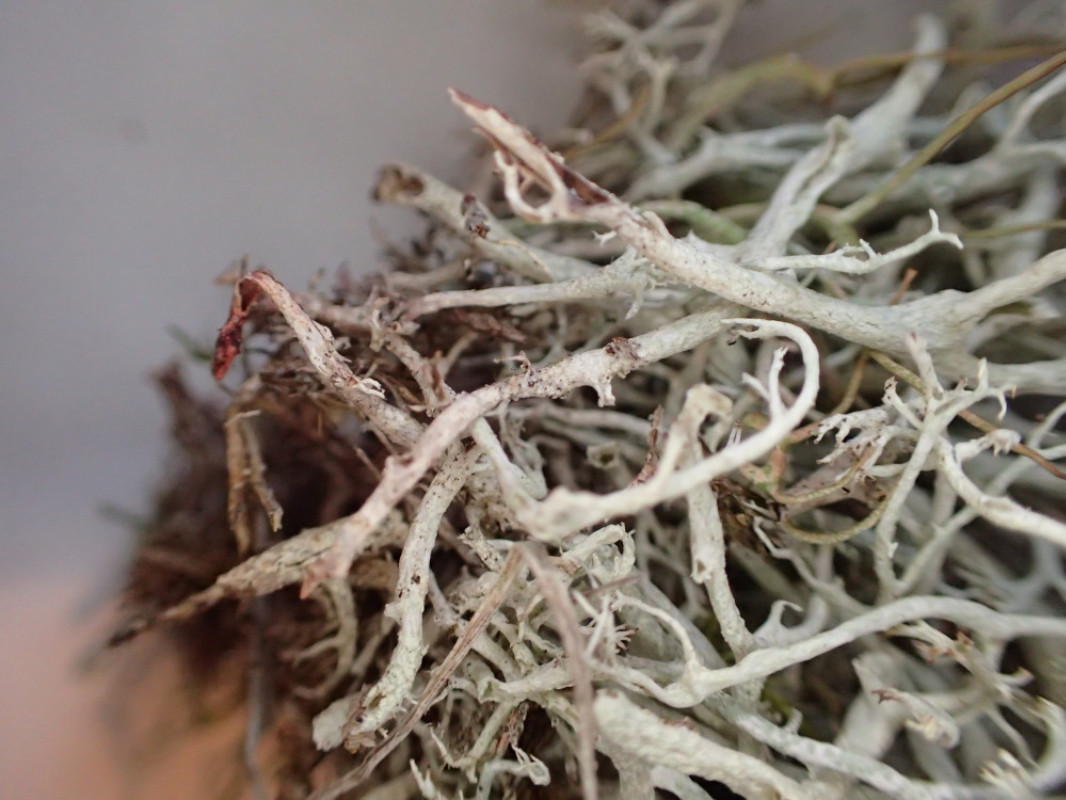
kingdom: Fungi
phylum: Ascomycota
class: Lecanoromycetes
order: Lecanorales
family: Cladoniaceae
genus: Cladonia
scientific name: Cladonia mitis
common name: mild rensdyrlav
